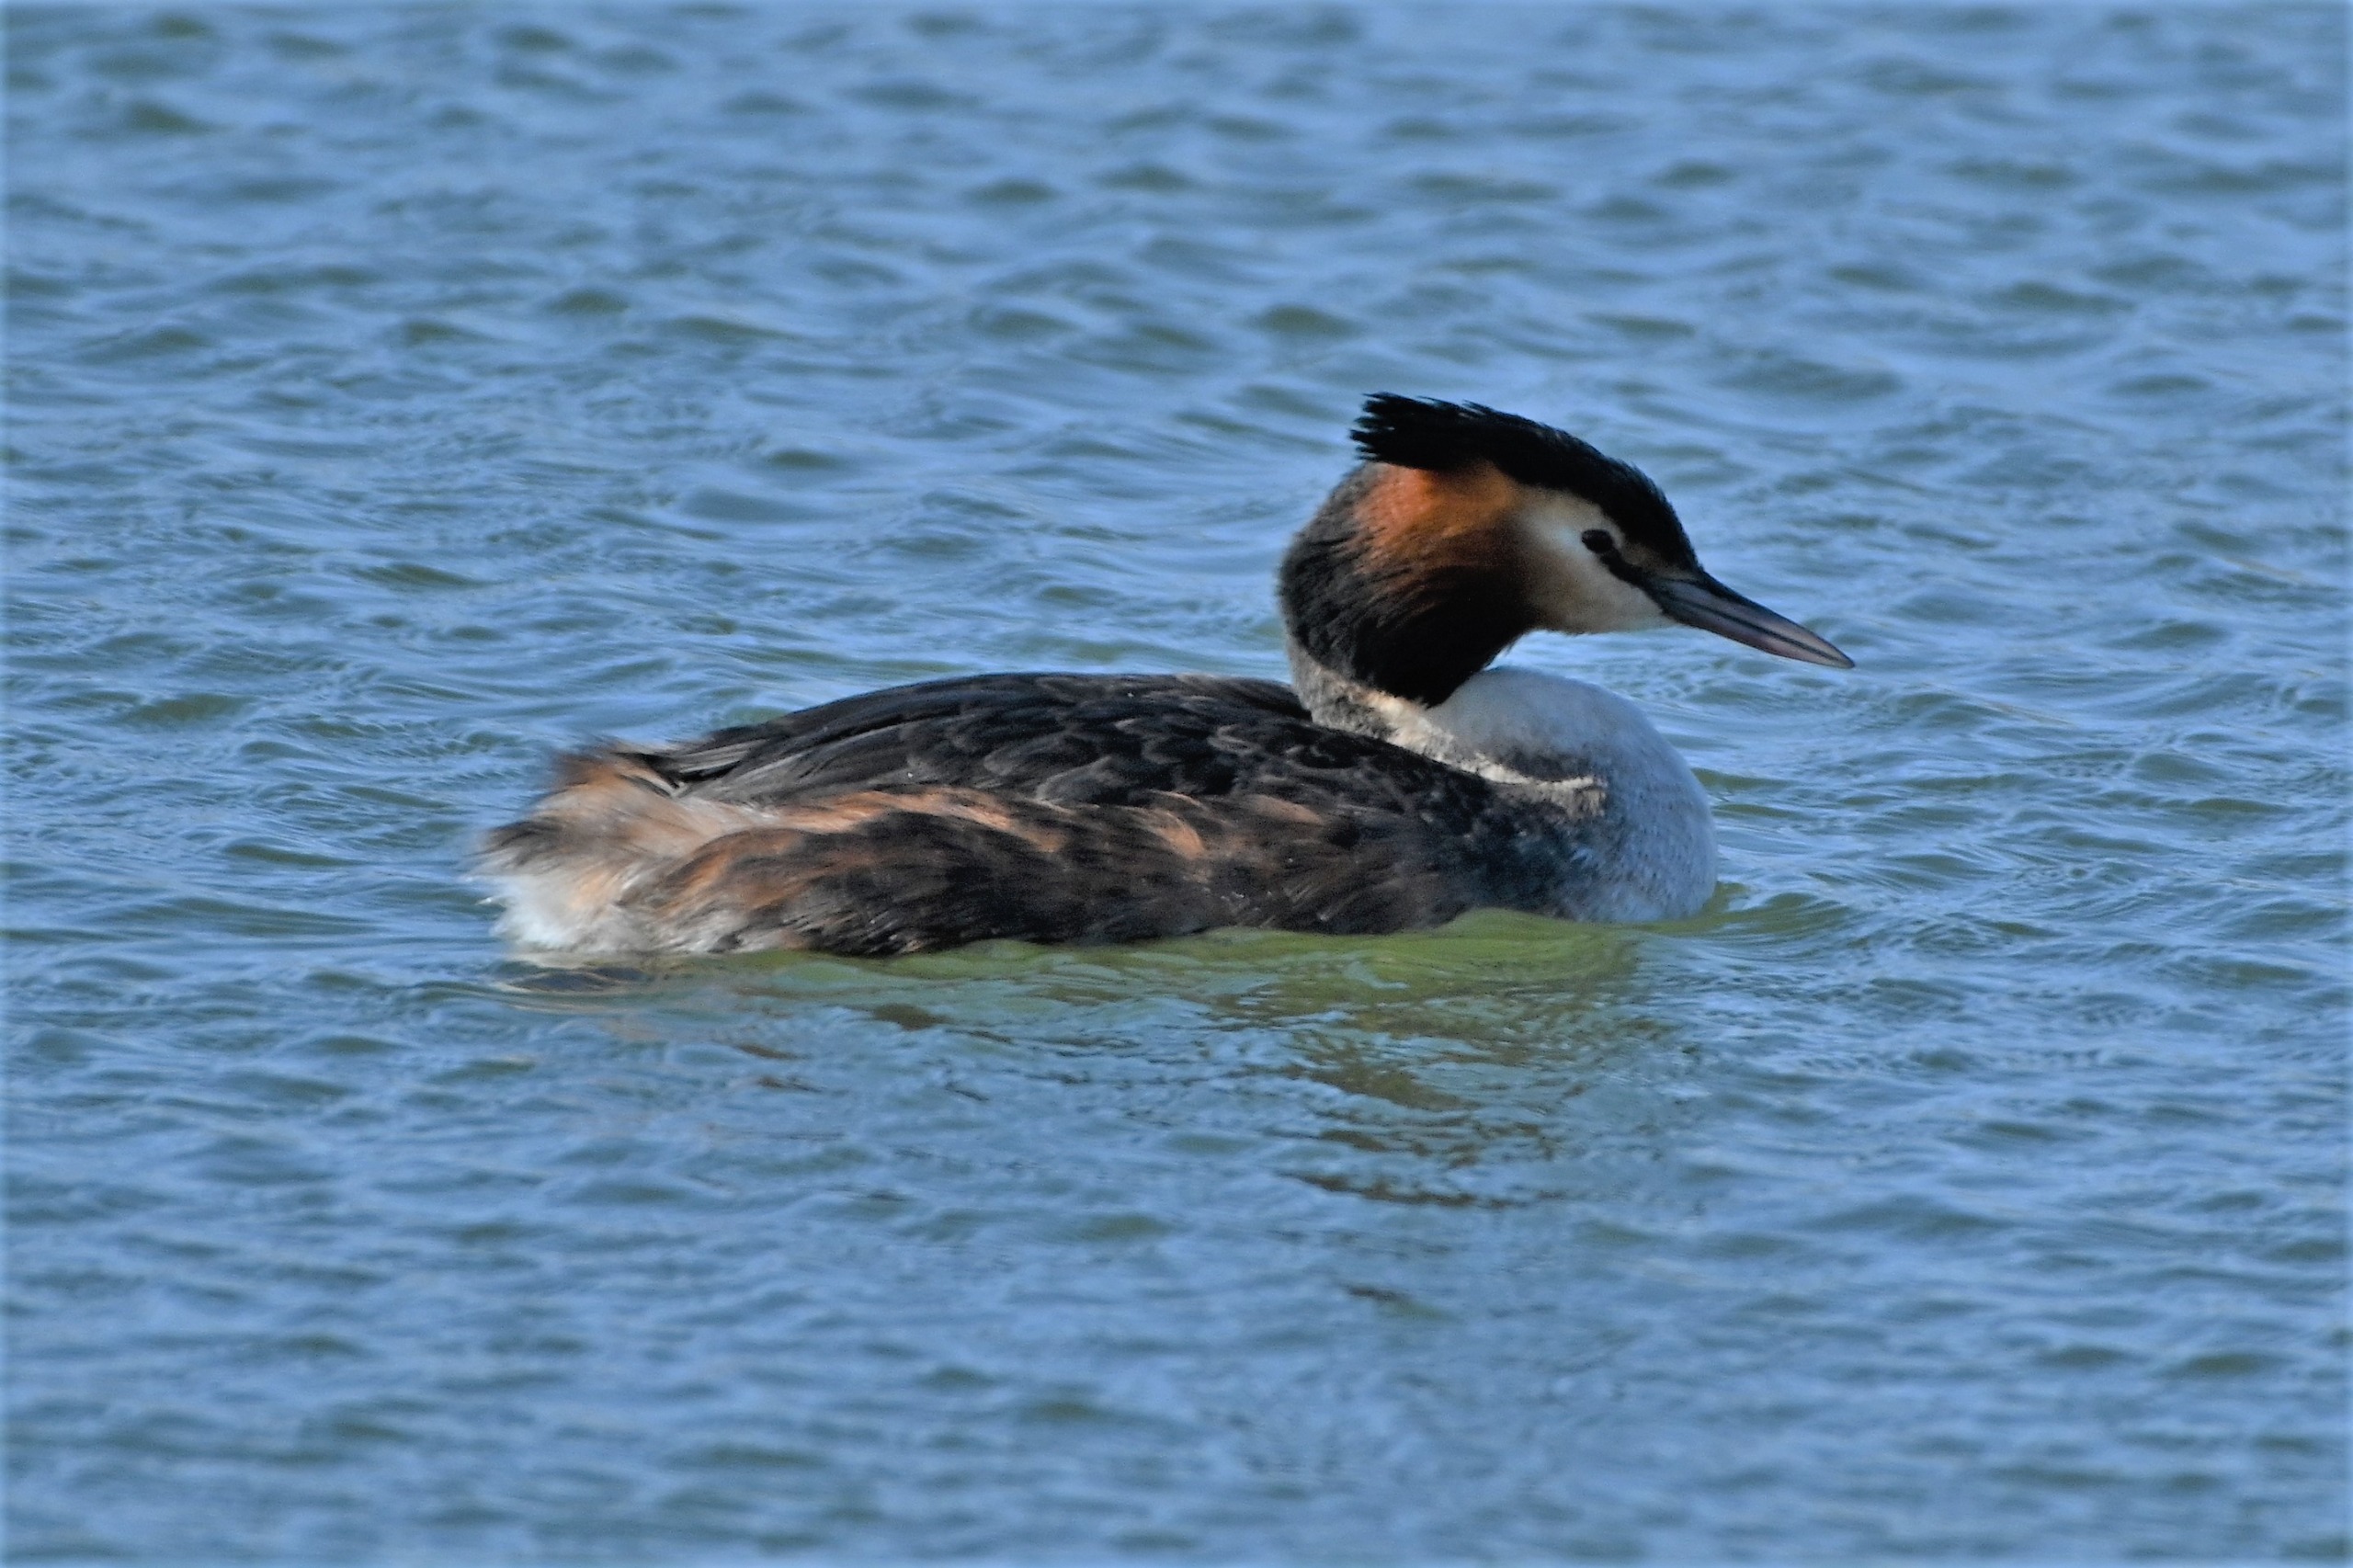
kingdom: Animalia
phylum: Chordata
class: Aves
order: Podicipediformes
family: Podicipedidae
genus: Podiceps
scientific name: Podiceps cristatus
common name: Toppet lappedykker
